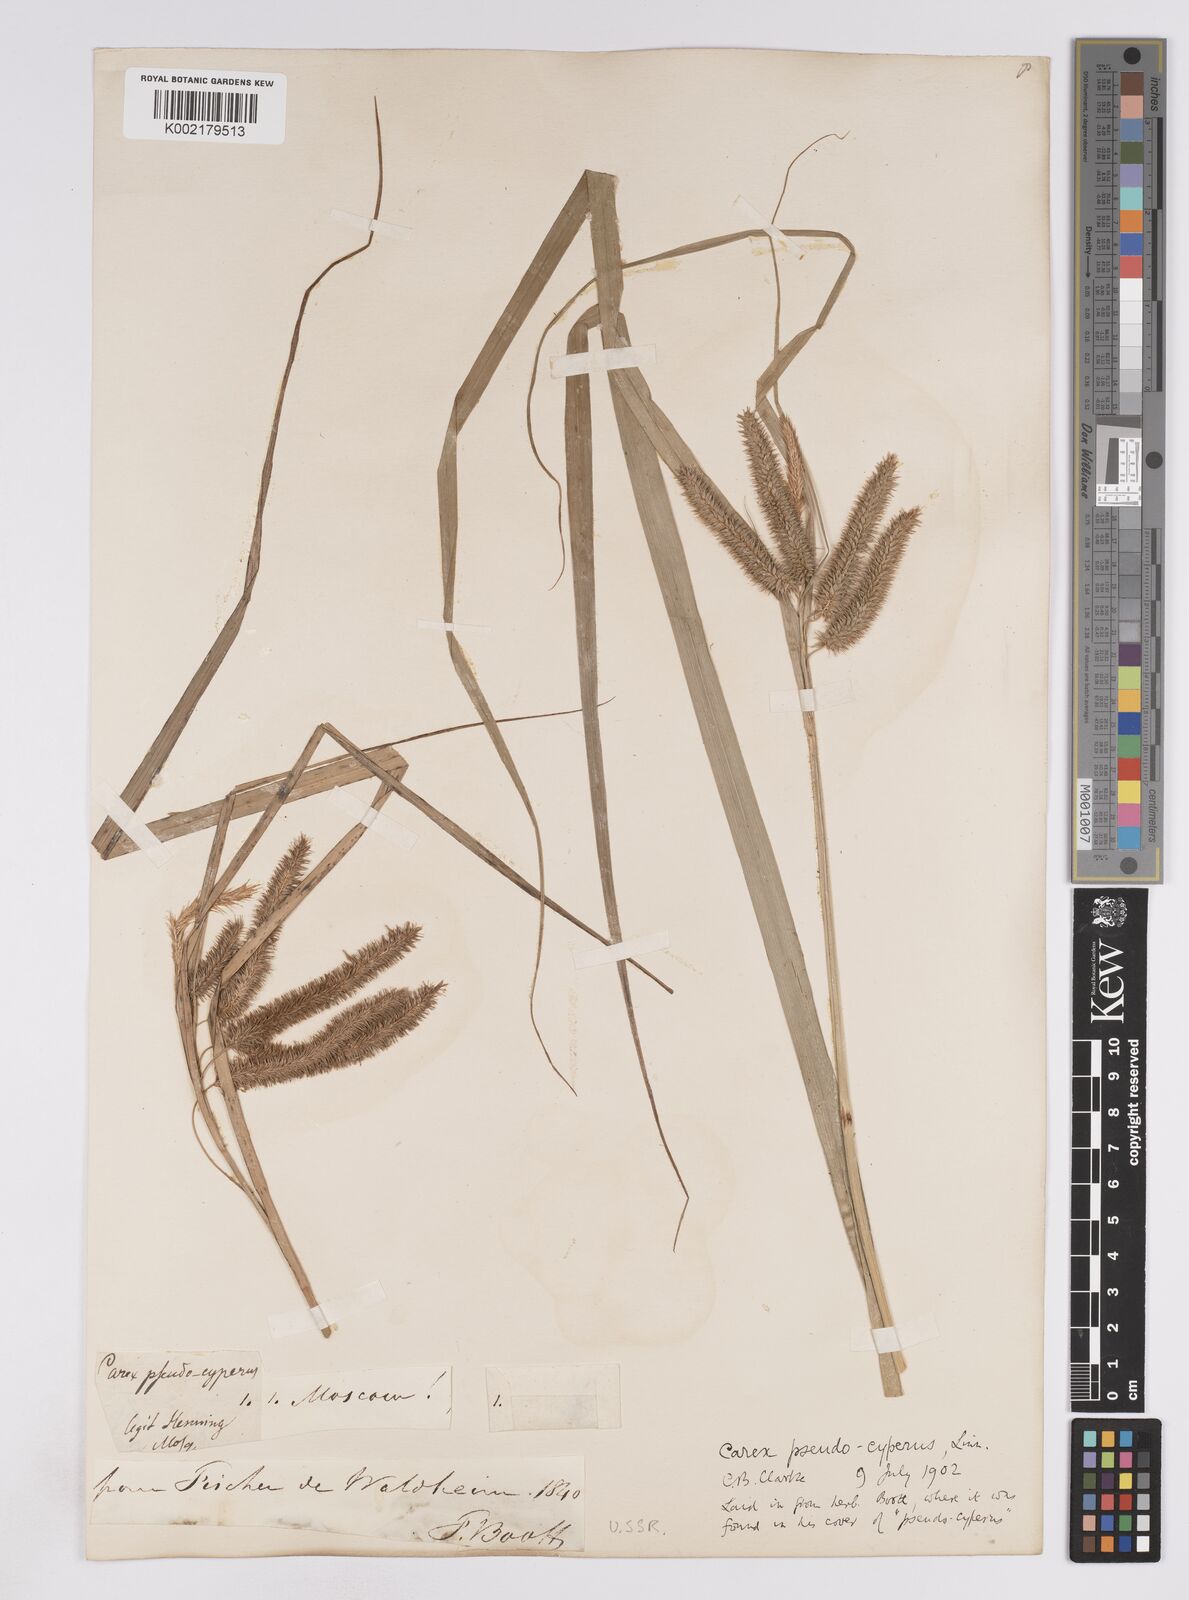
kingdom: Plantae
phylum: Tracheophyta
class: Liliopsida
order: Poales
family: Cyperaceae
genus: Carex
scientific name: Carex pseudocyperus
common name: Cyperus sedge
